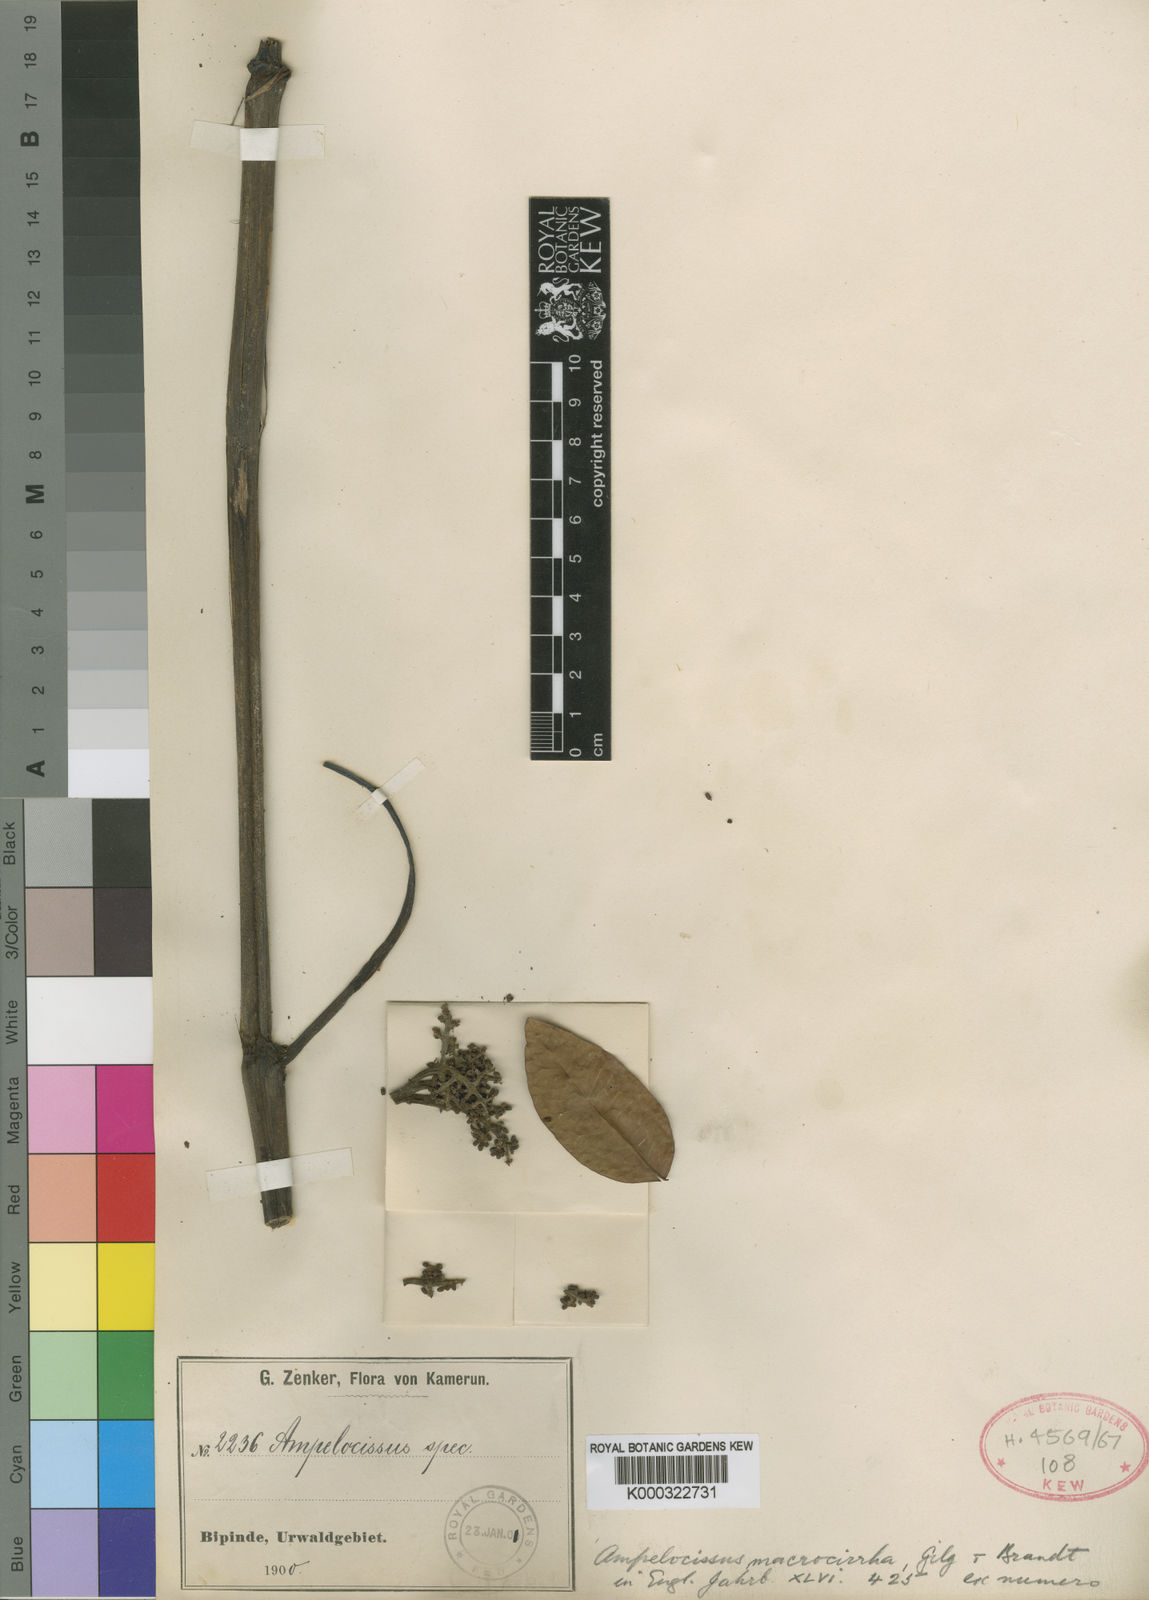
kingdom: Plantae
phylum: Tracheophyta
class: Magnoliopsida
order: Vitales
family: Vitaceae
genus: Ampelocissus
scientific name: Ampelocissus macrocirrha
